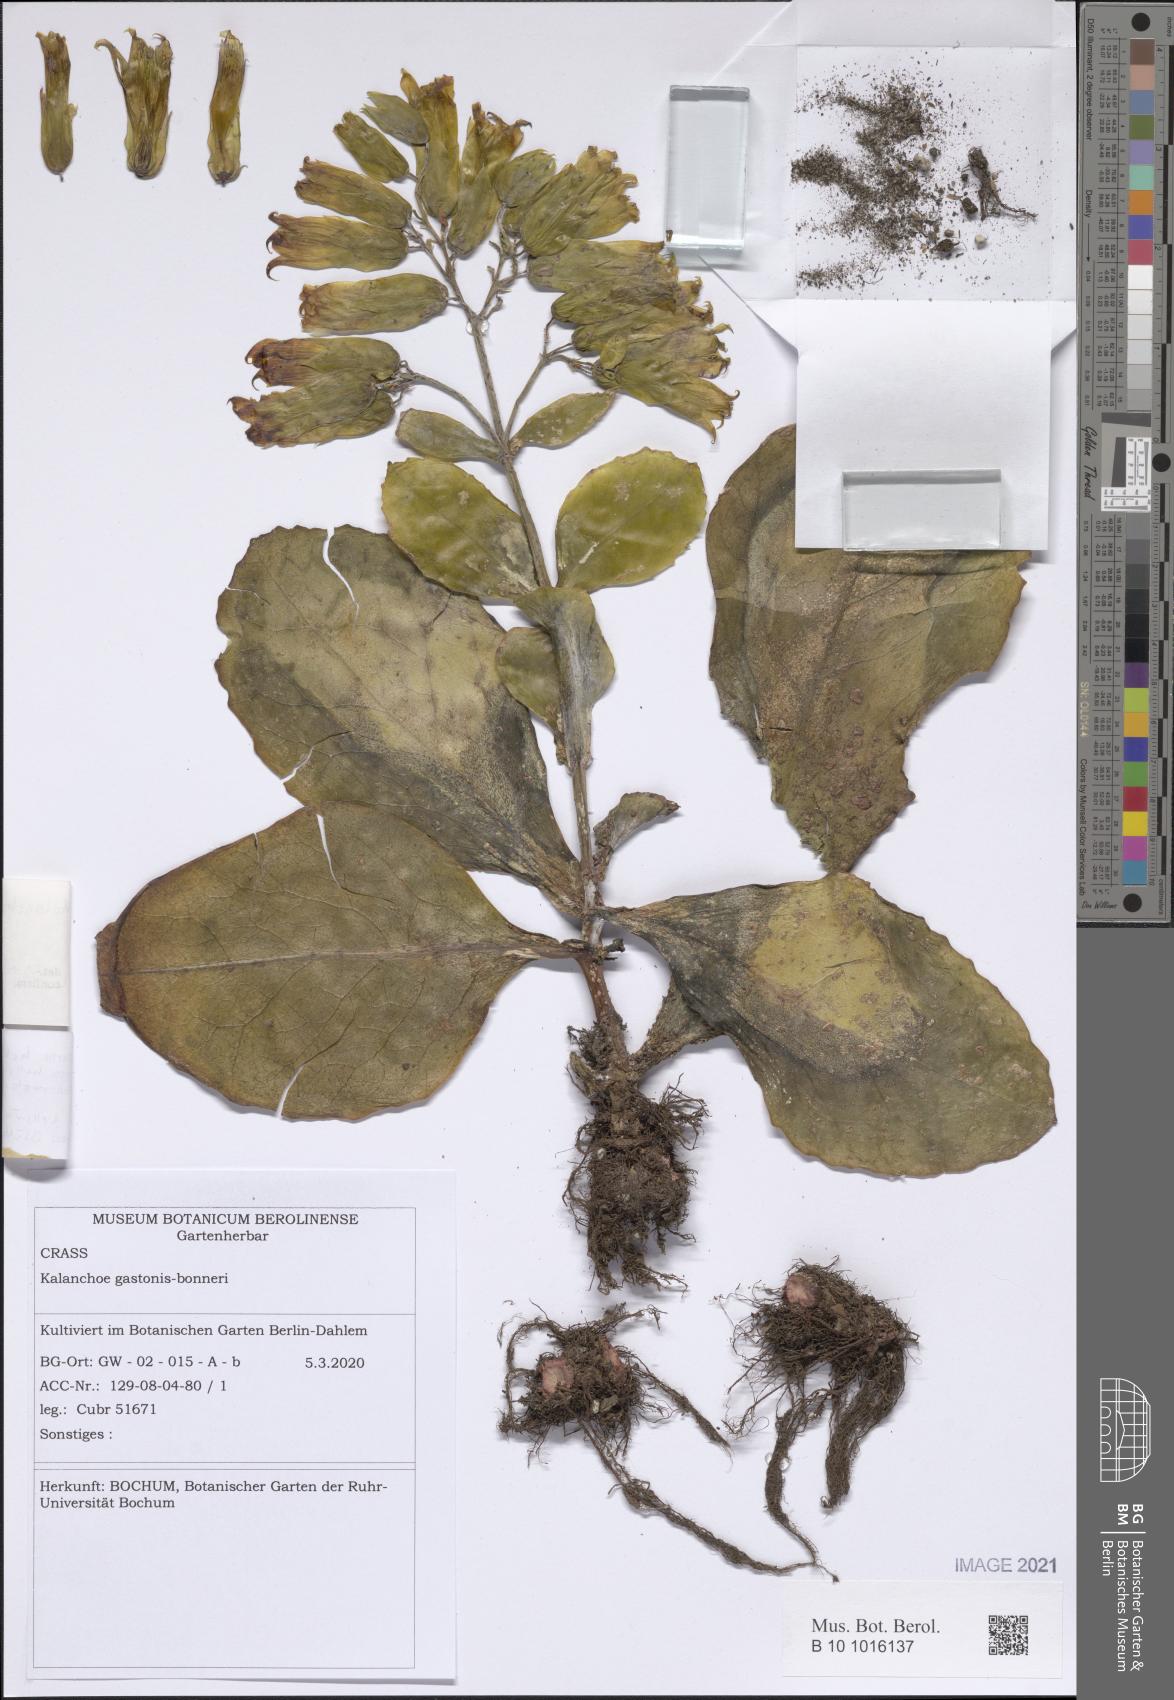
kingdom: Plantae
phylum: Tracheophyta
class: Magnoliopsida
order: Saxifragales
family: Crassulaceae
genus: Kalanchoe
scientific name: Kalanchoe gastonis-bonnieri
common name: Palm beachbells
